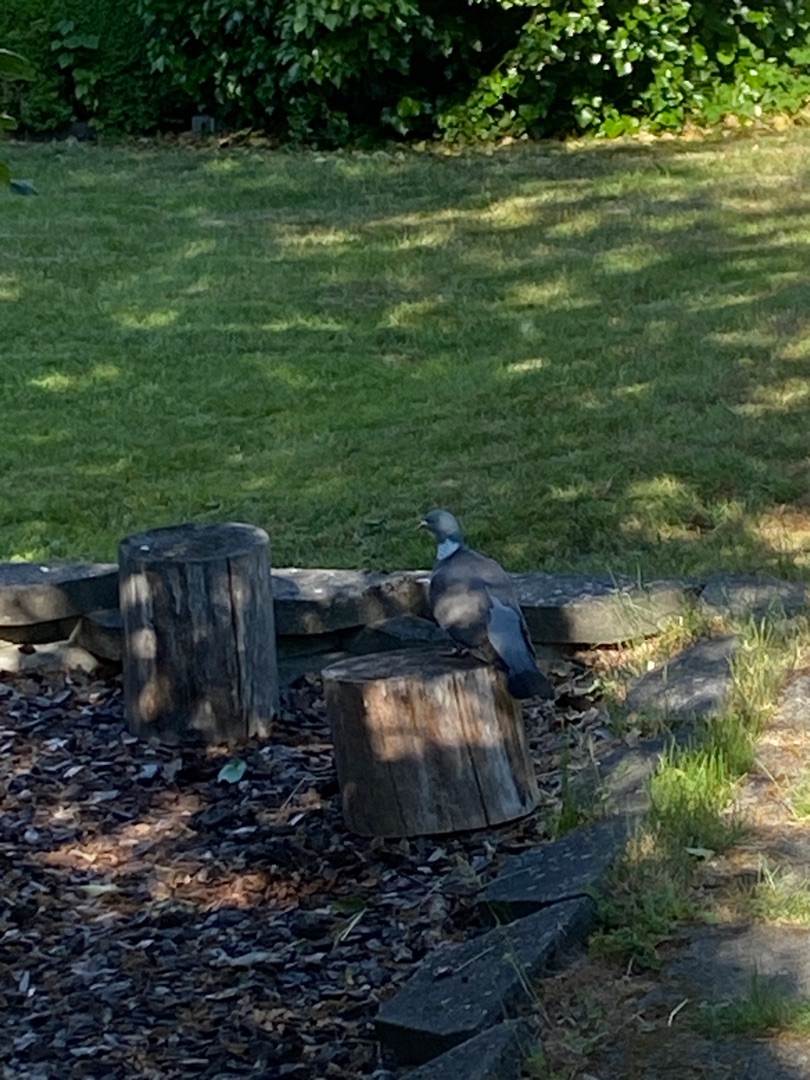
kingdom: Animalia
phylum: Chordata
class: Aves
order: Columbiformes
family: Columbidae
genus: Columba
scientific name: Columba palumbus
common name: Ringdue
